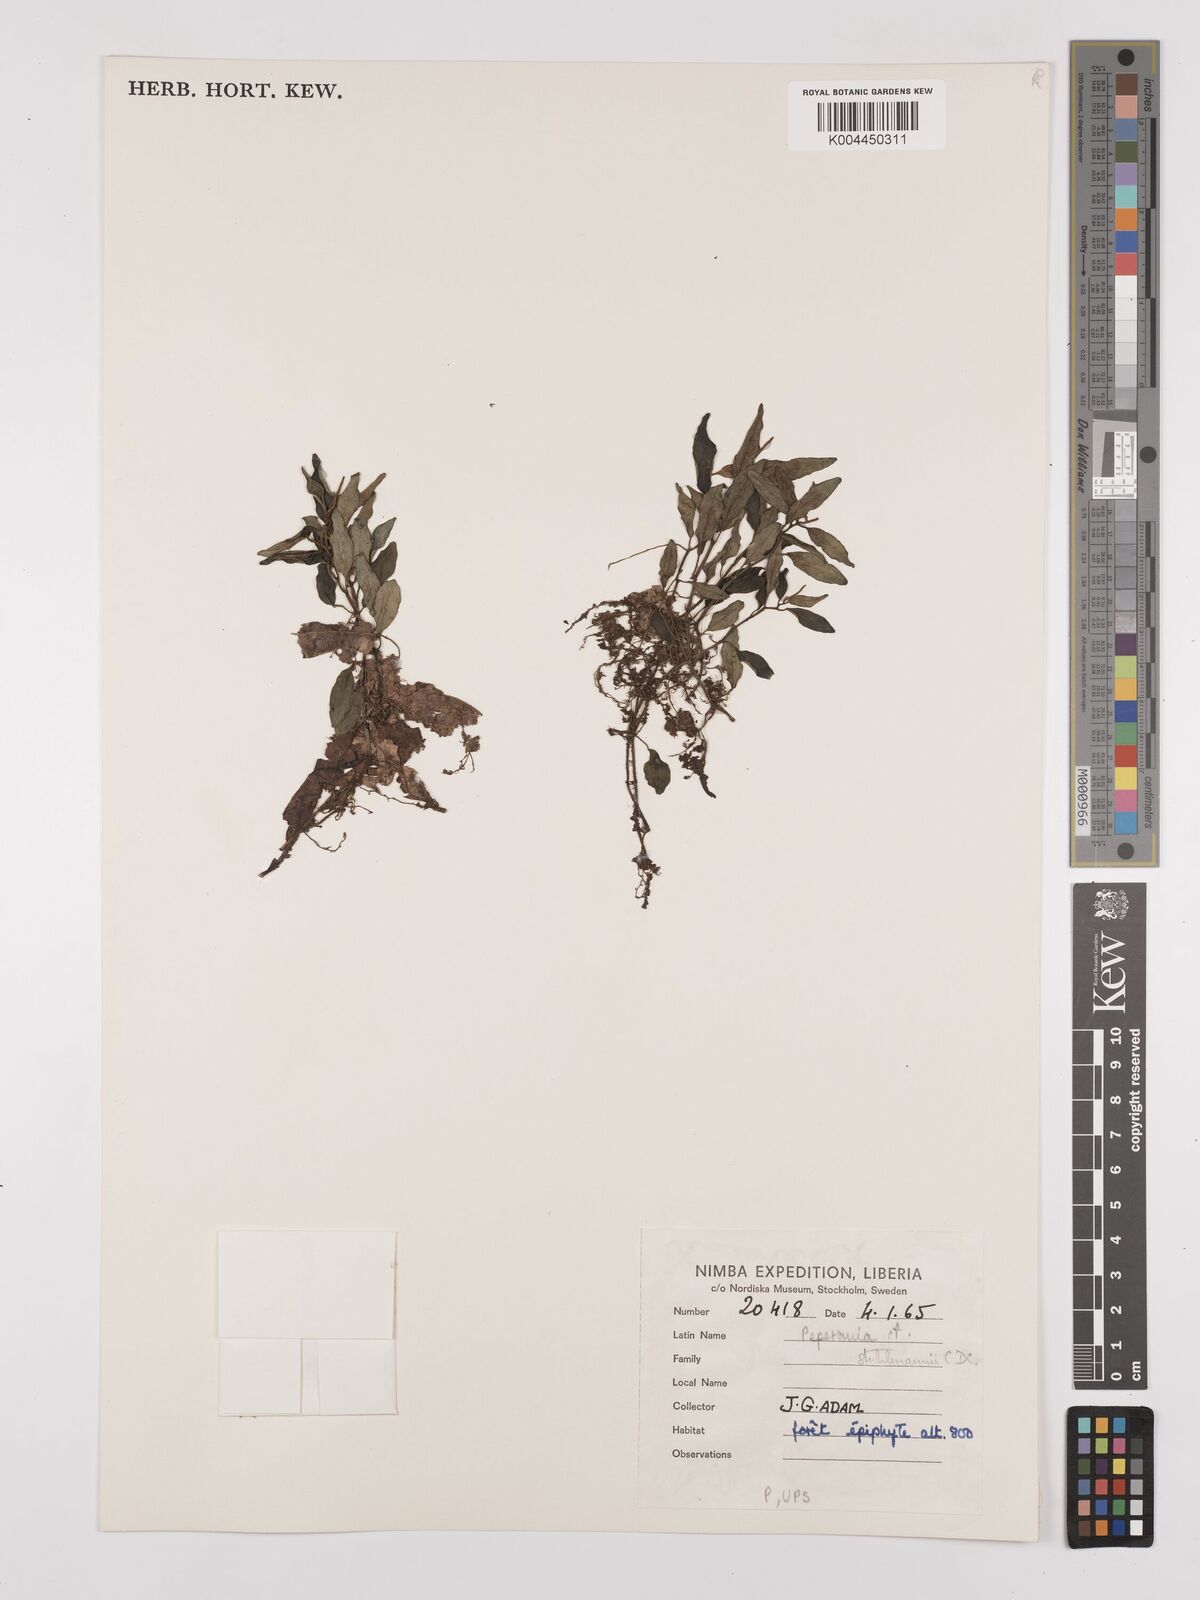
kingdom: Plantae
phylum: Tracheophyta
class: Magnoliopsida
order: Piperales
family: Piperaceae
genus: Peperomia
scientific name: Peperomia abyssinica
